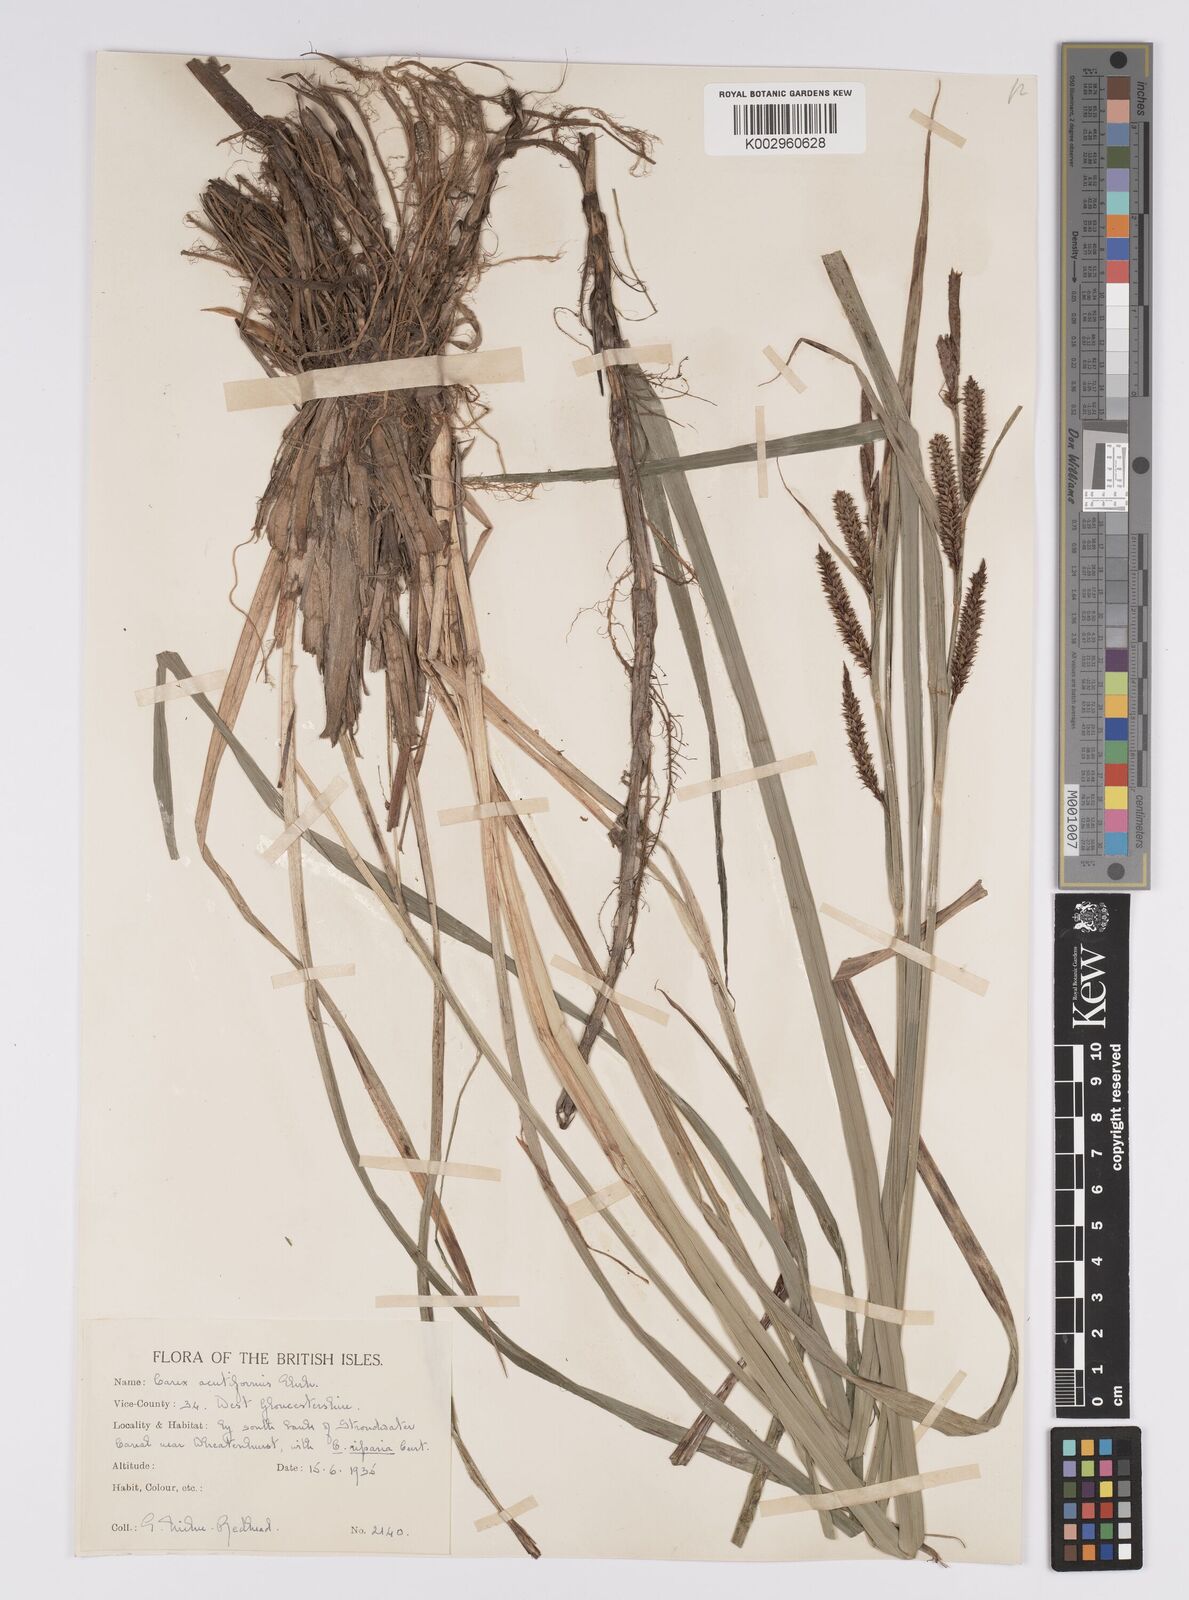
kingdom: Plantae
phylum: Tracheophyta
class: Liliopsida
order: Poales
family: Cyperaceae
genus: Carex
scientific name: Carex acutiformis
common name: Lesser pond-sedge
